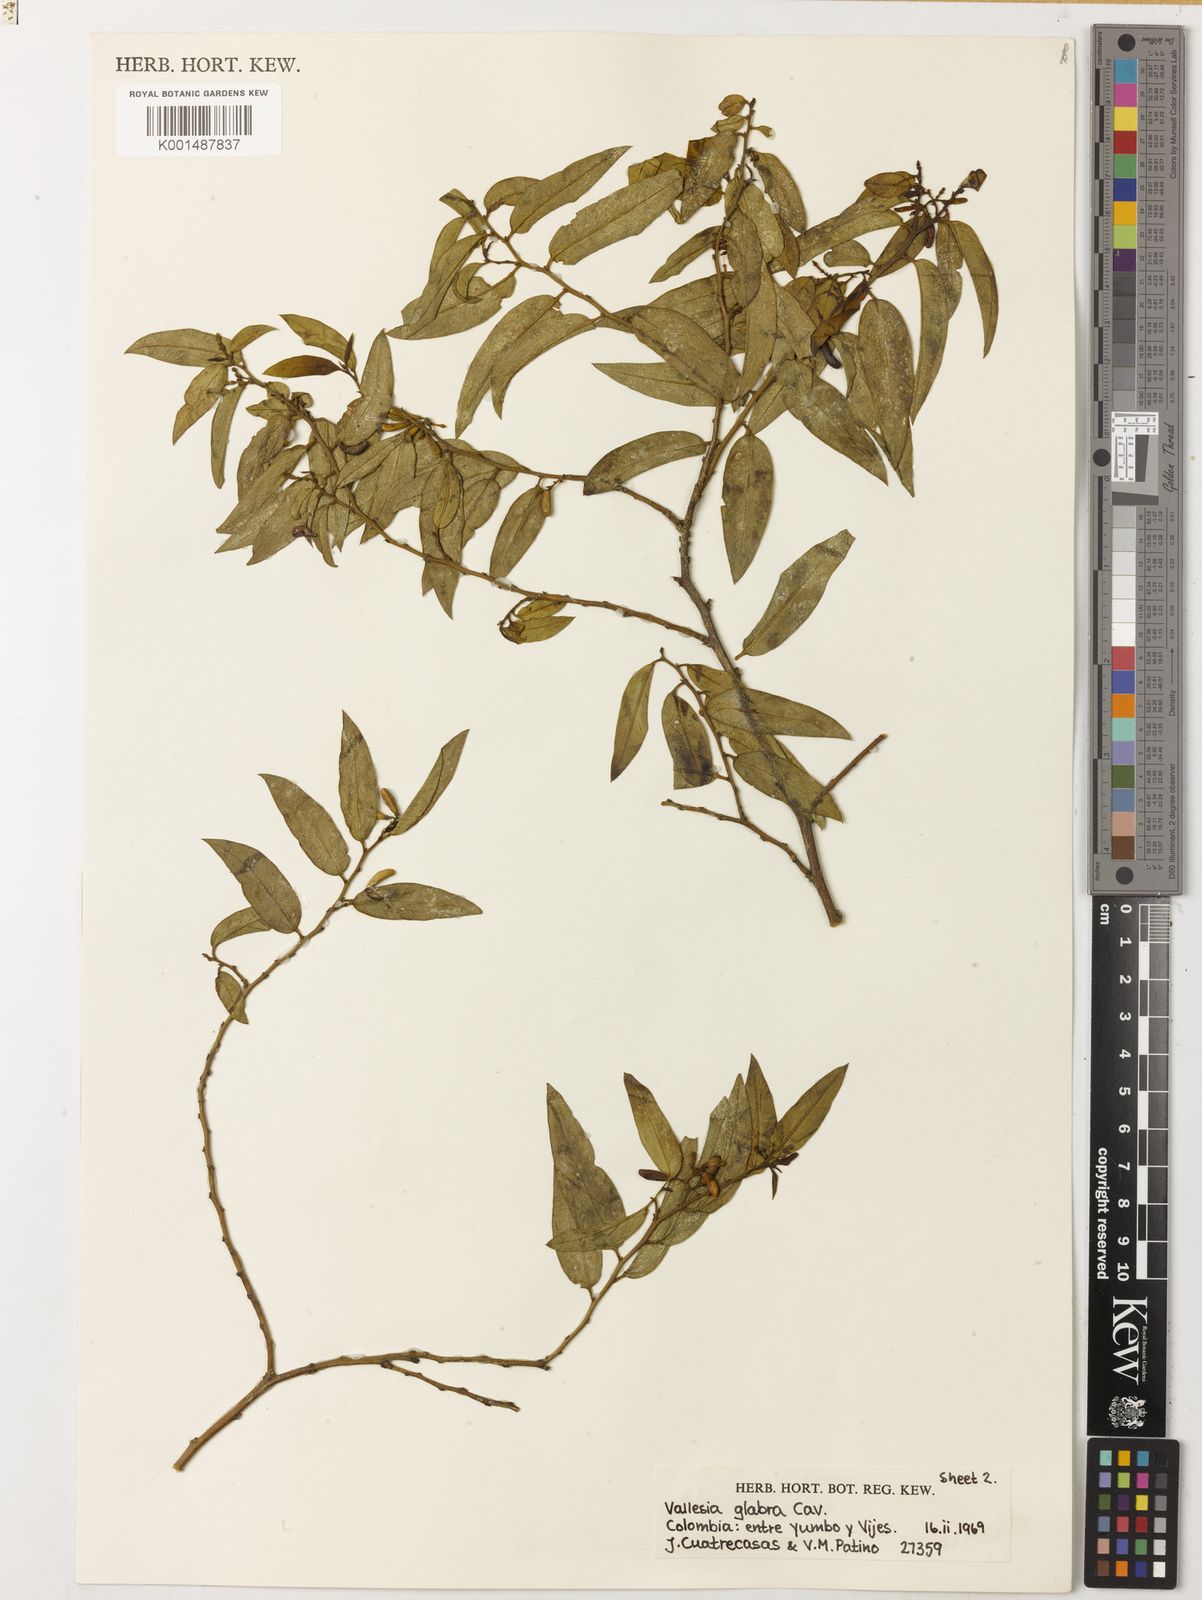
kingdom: Plantae
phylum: Tracheophyta
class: Magnoliopsida
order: Gentianales
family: Apocynaceae
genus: Vallesia
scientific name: Vallesia glabra
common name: Pearlberry
